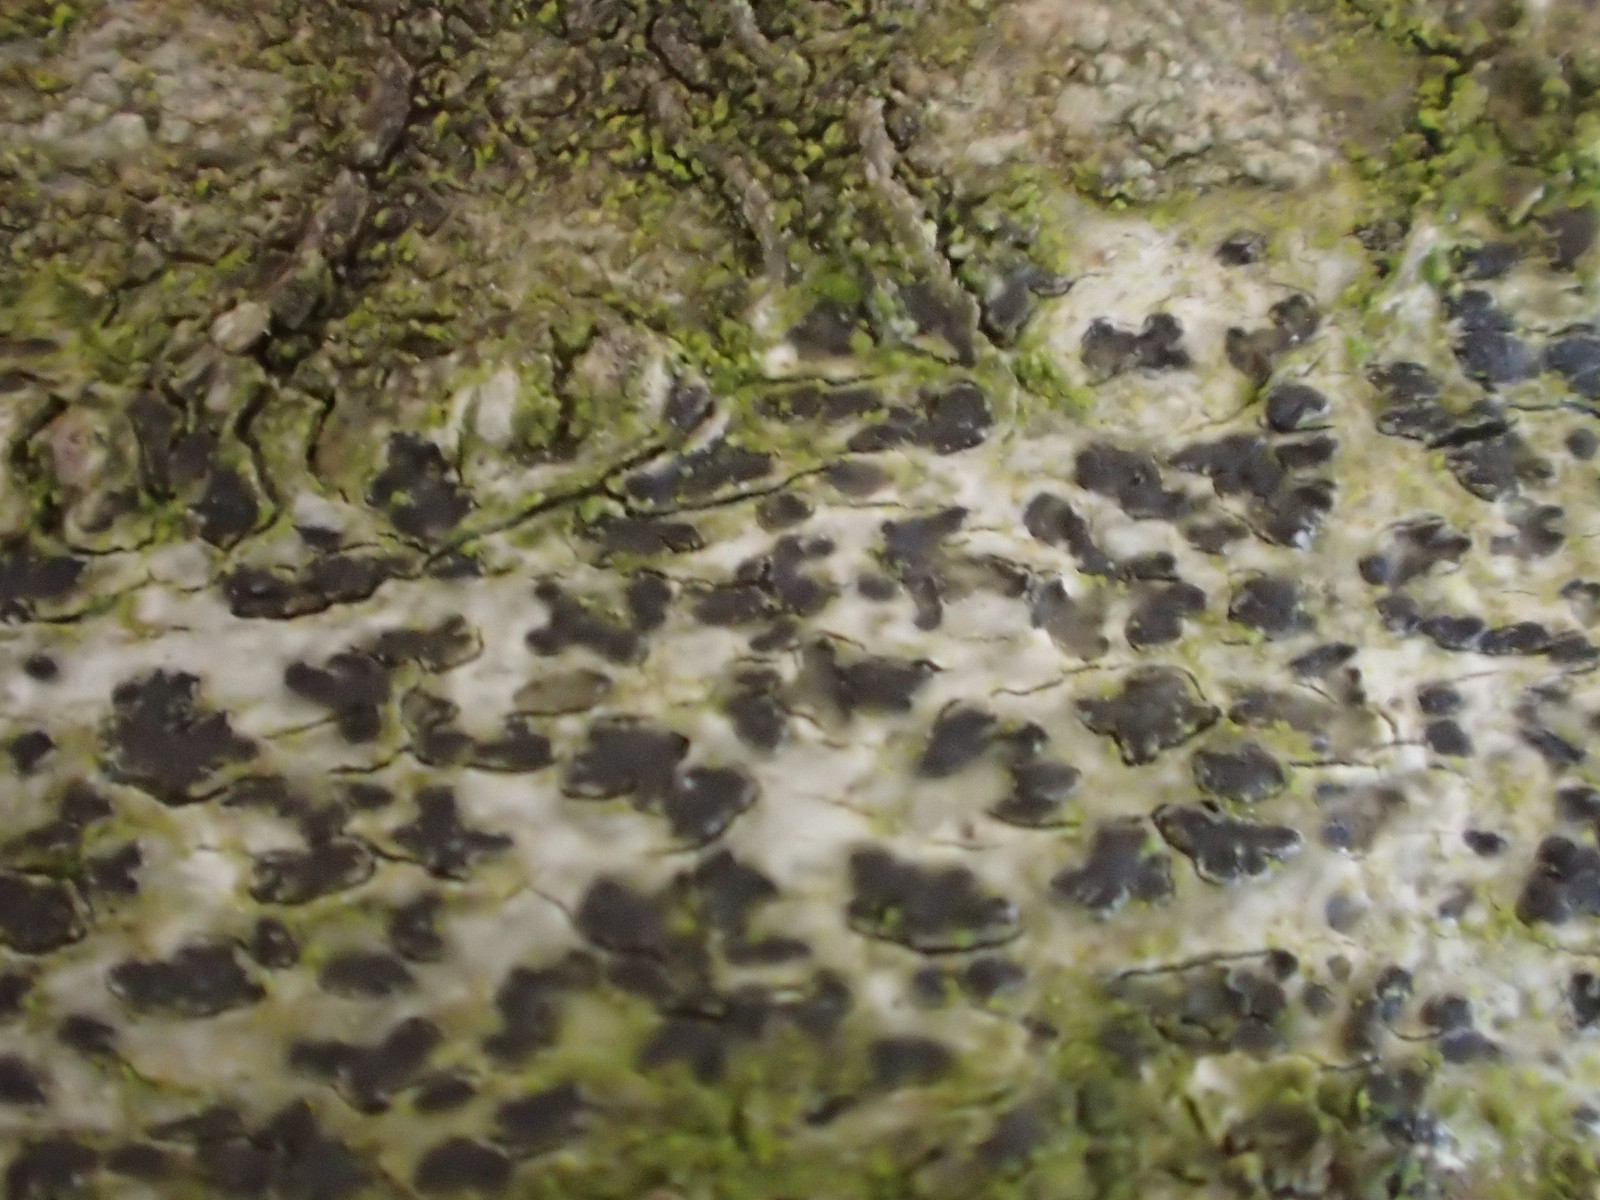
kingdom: Fungi
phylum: Ascomycota
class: Arthoniomycetes
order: Arthoniales
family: Arthoniaceae
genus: Arthonia
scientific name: Arthonia radiata
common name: stjerne-pletlav
